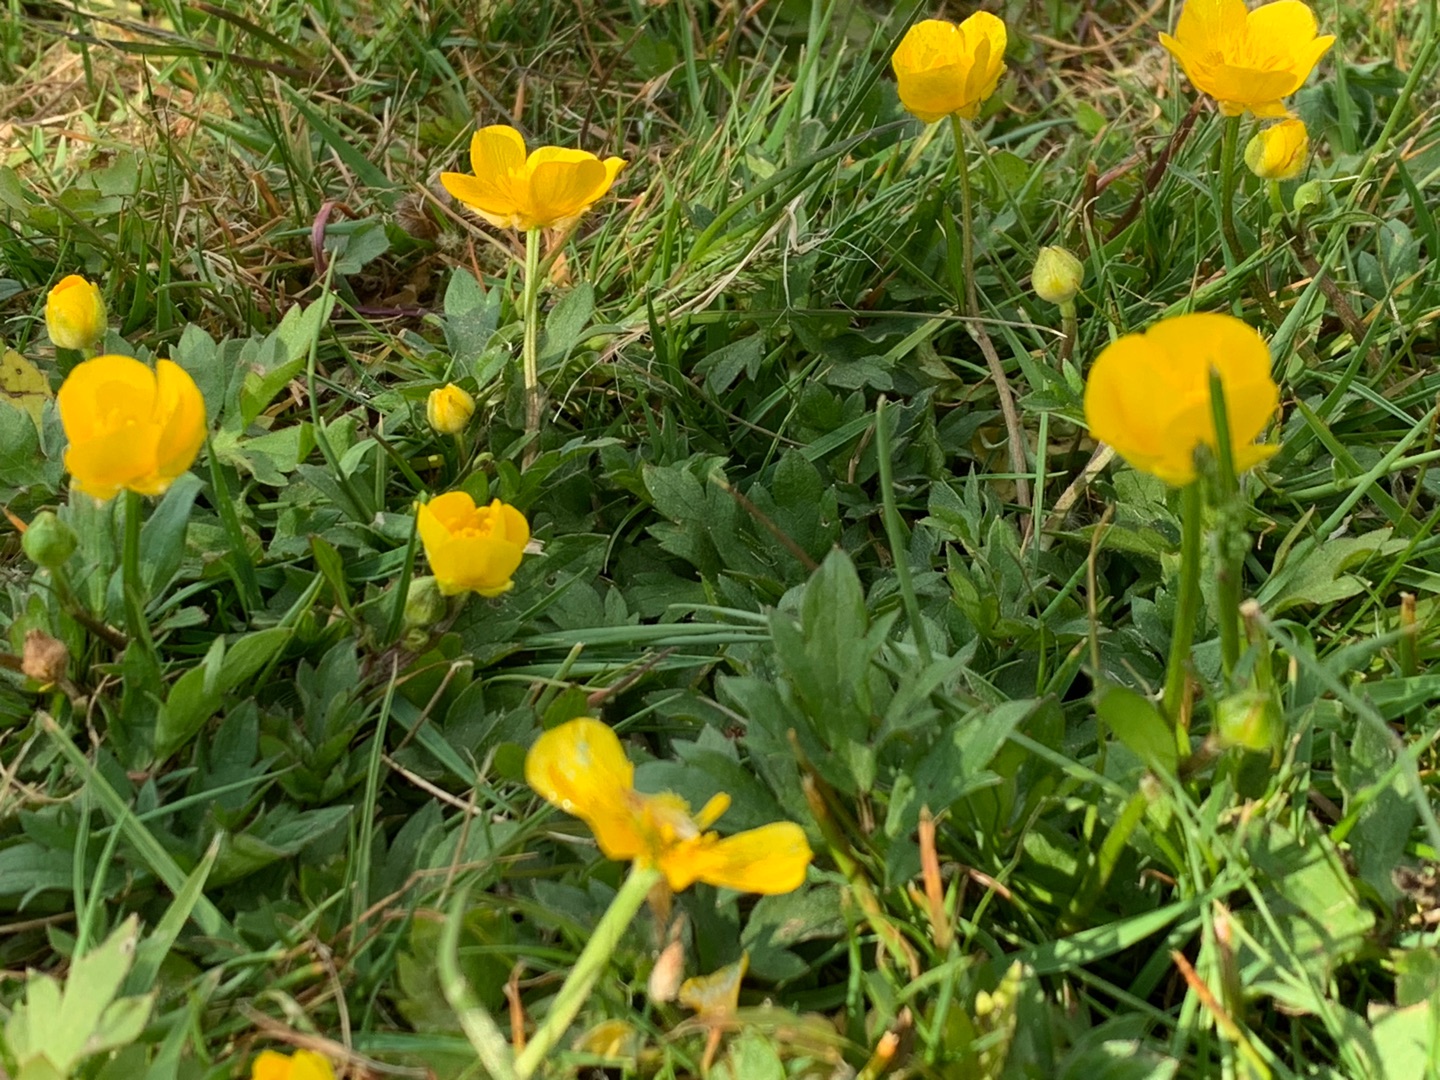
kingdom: Plantae
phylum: Tracheophyta
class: Magnoliopsida
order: Ranunculales
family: Ranunculaceae
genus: Ranunculus
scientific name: Ranunculus repens
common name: Lav ranunkel
